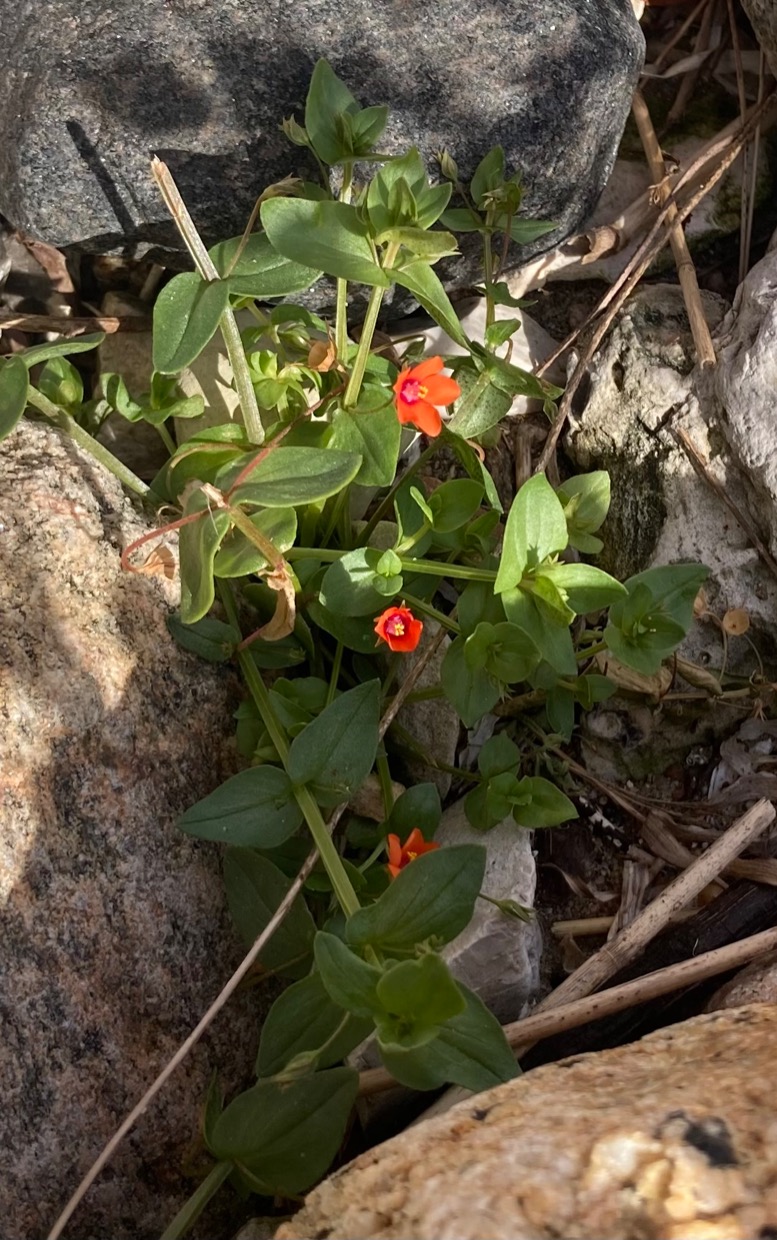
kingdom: Plantae
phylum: Tracheophyta
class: Magnoliopsida
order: Ericales
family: Primulaceae
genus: Lysimachia
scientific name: Lysimachia arvensis
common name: Rød arve
